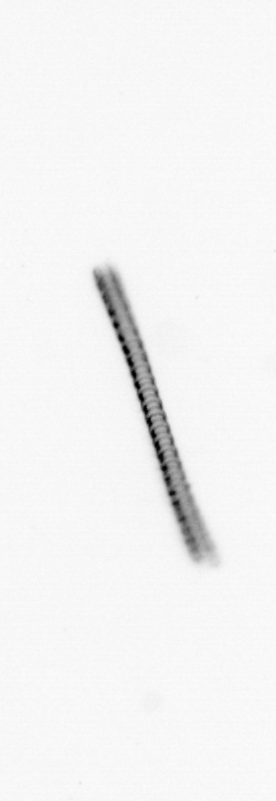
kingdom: Chromista
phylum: Ochrophyta
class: Bacillariophyceae
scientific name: Bacillariophyceae
